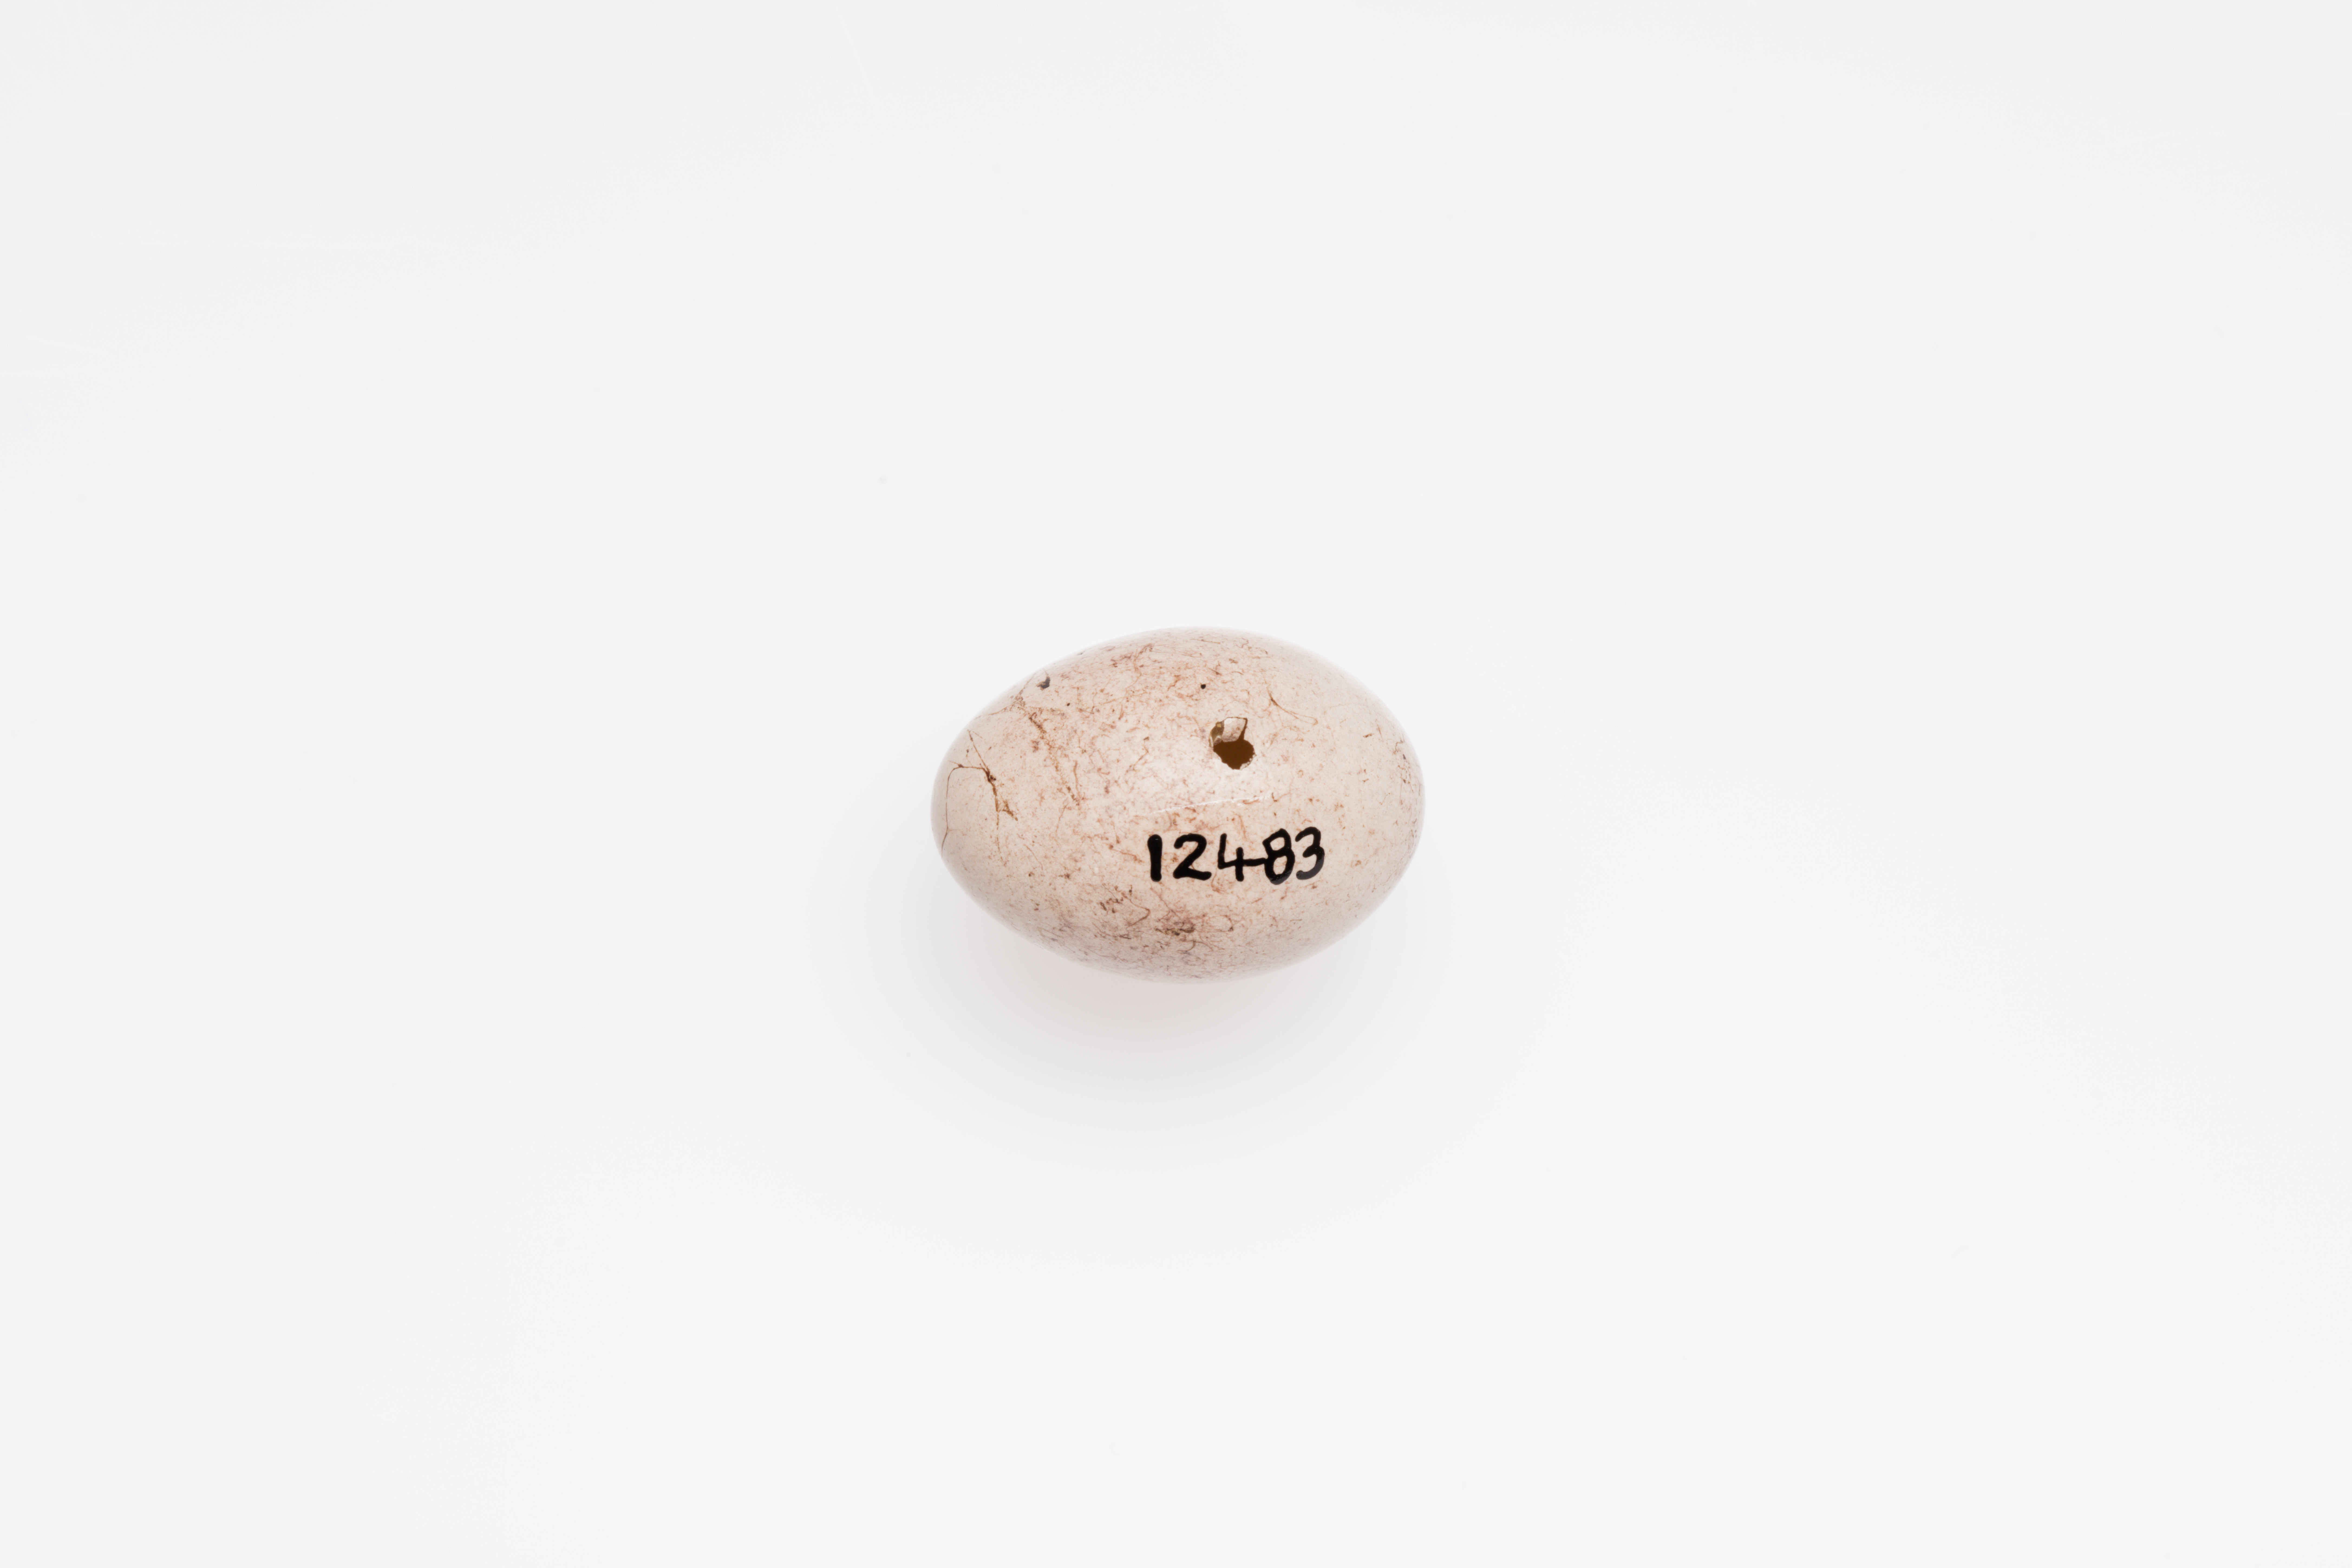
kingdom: Animalia
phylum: Chordata
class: Aves
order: Passeriformes
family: Emberizidae
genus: Emberiza
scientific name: Emberiza citrinella
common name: Yellowhammer
